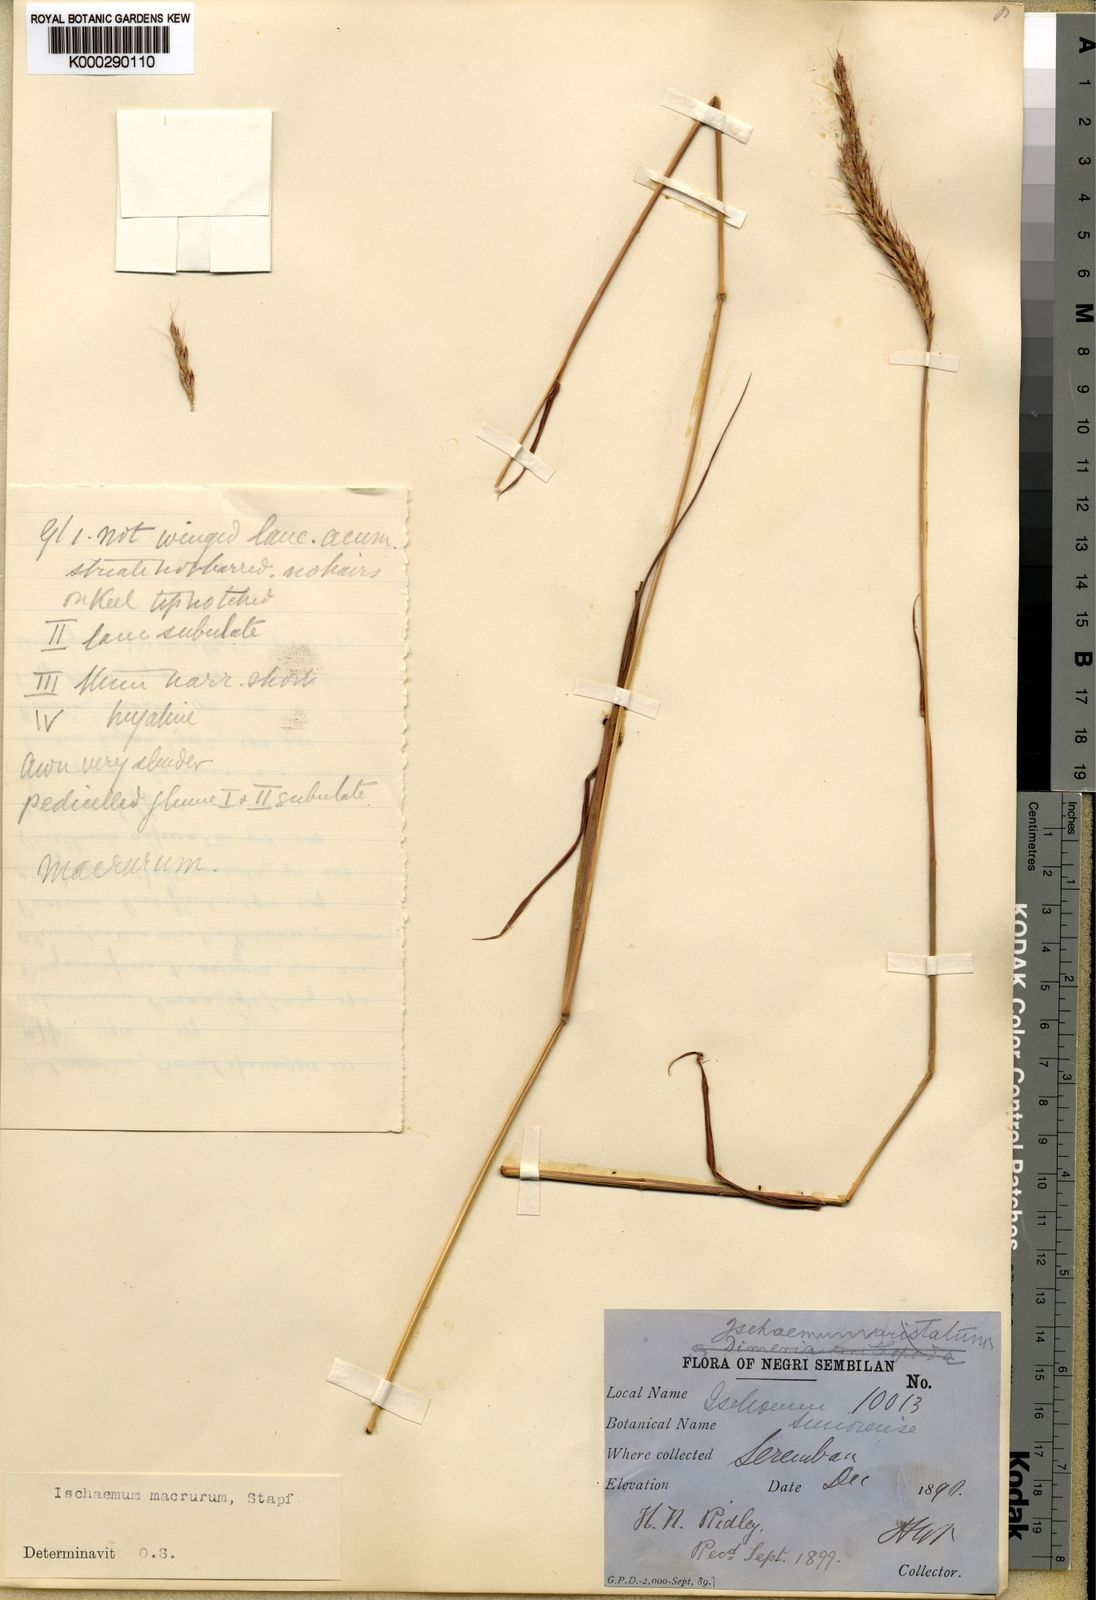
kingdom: Plantae
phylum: Tracheophyta
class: Liliopsida
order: Poales
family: Poaceae
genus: Ischaemum
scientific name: Ischaemum timorense
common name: Stalkleaf murainagrass
